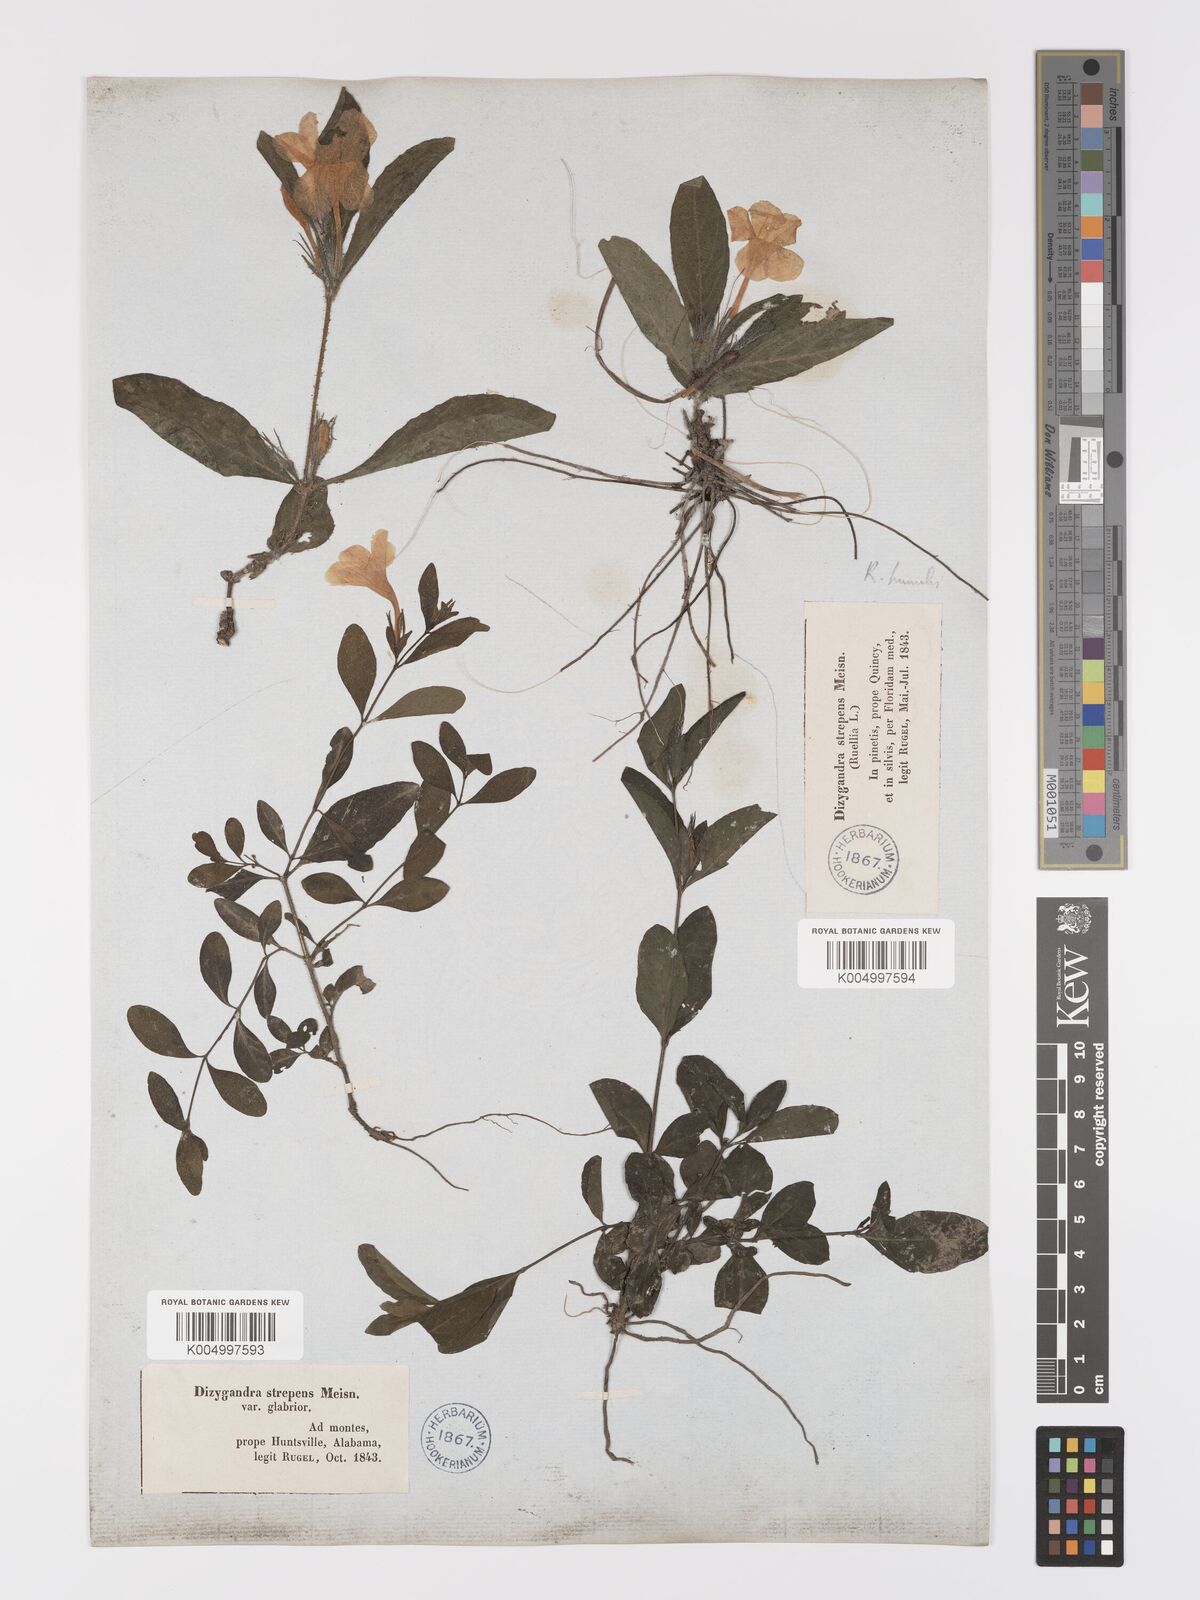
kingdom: Plantae
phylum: Tracheophyta
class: Magnoliopsida
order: Lamiales
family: Acanthaceae
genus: Ruellia
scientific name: Ruellia
